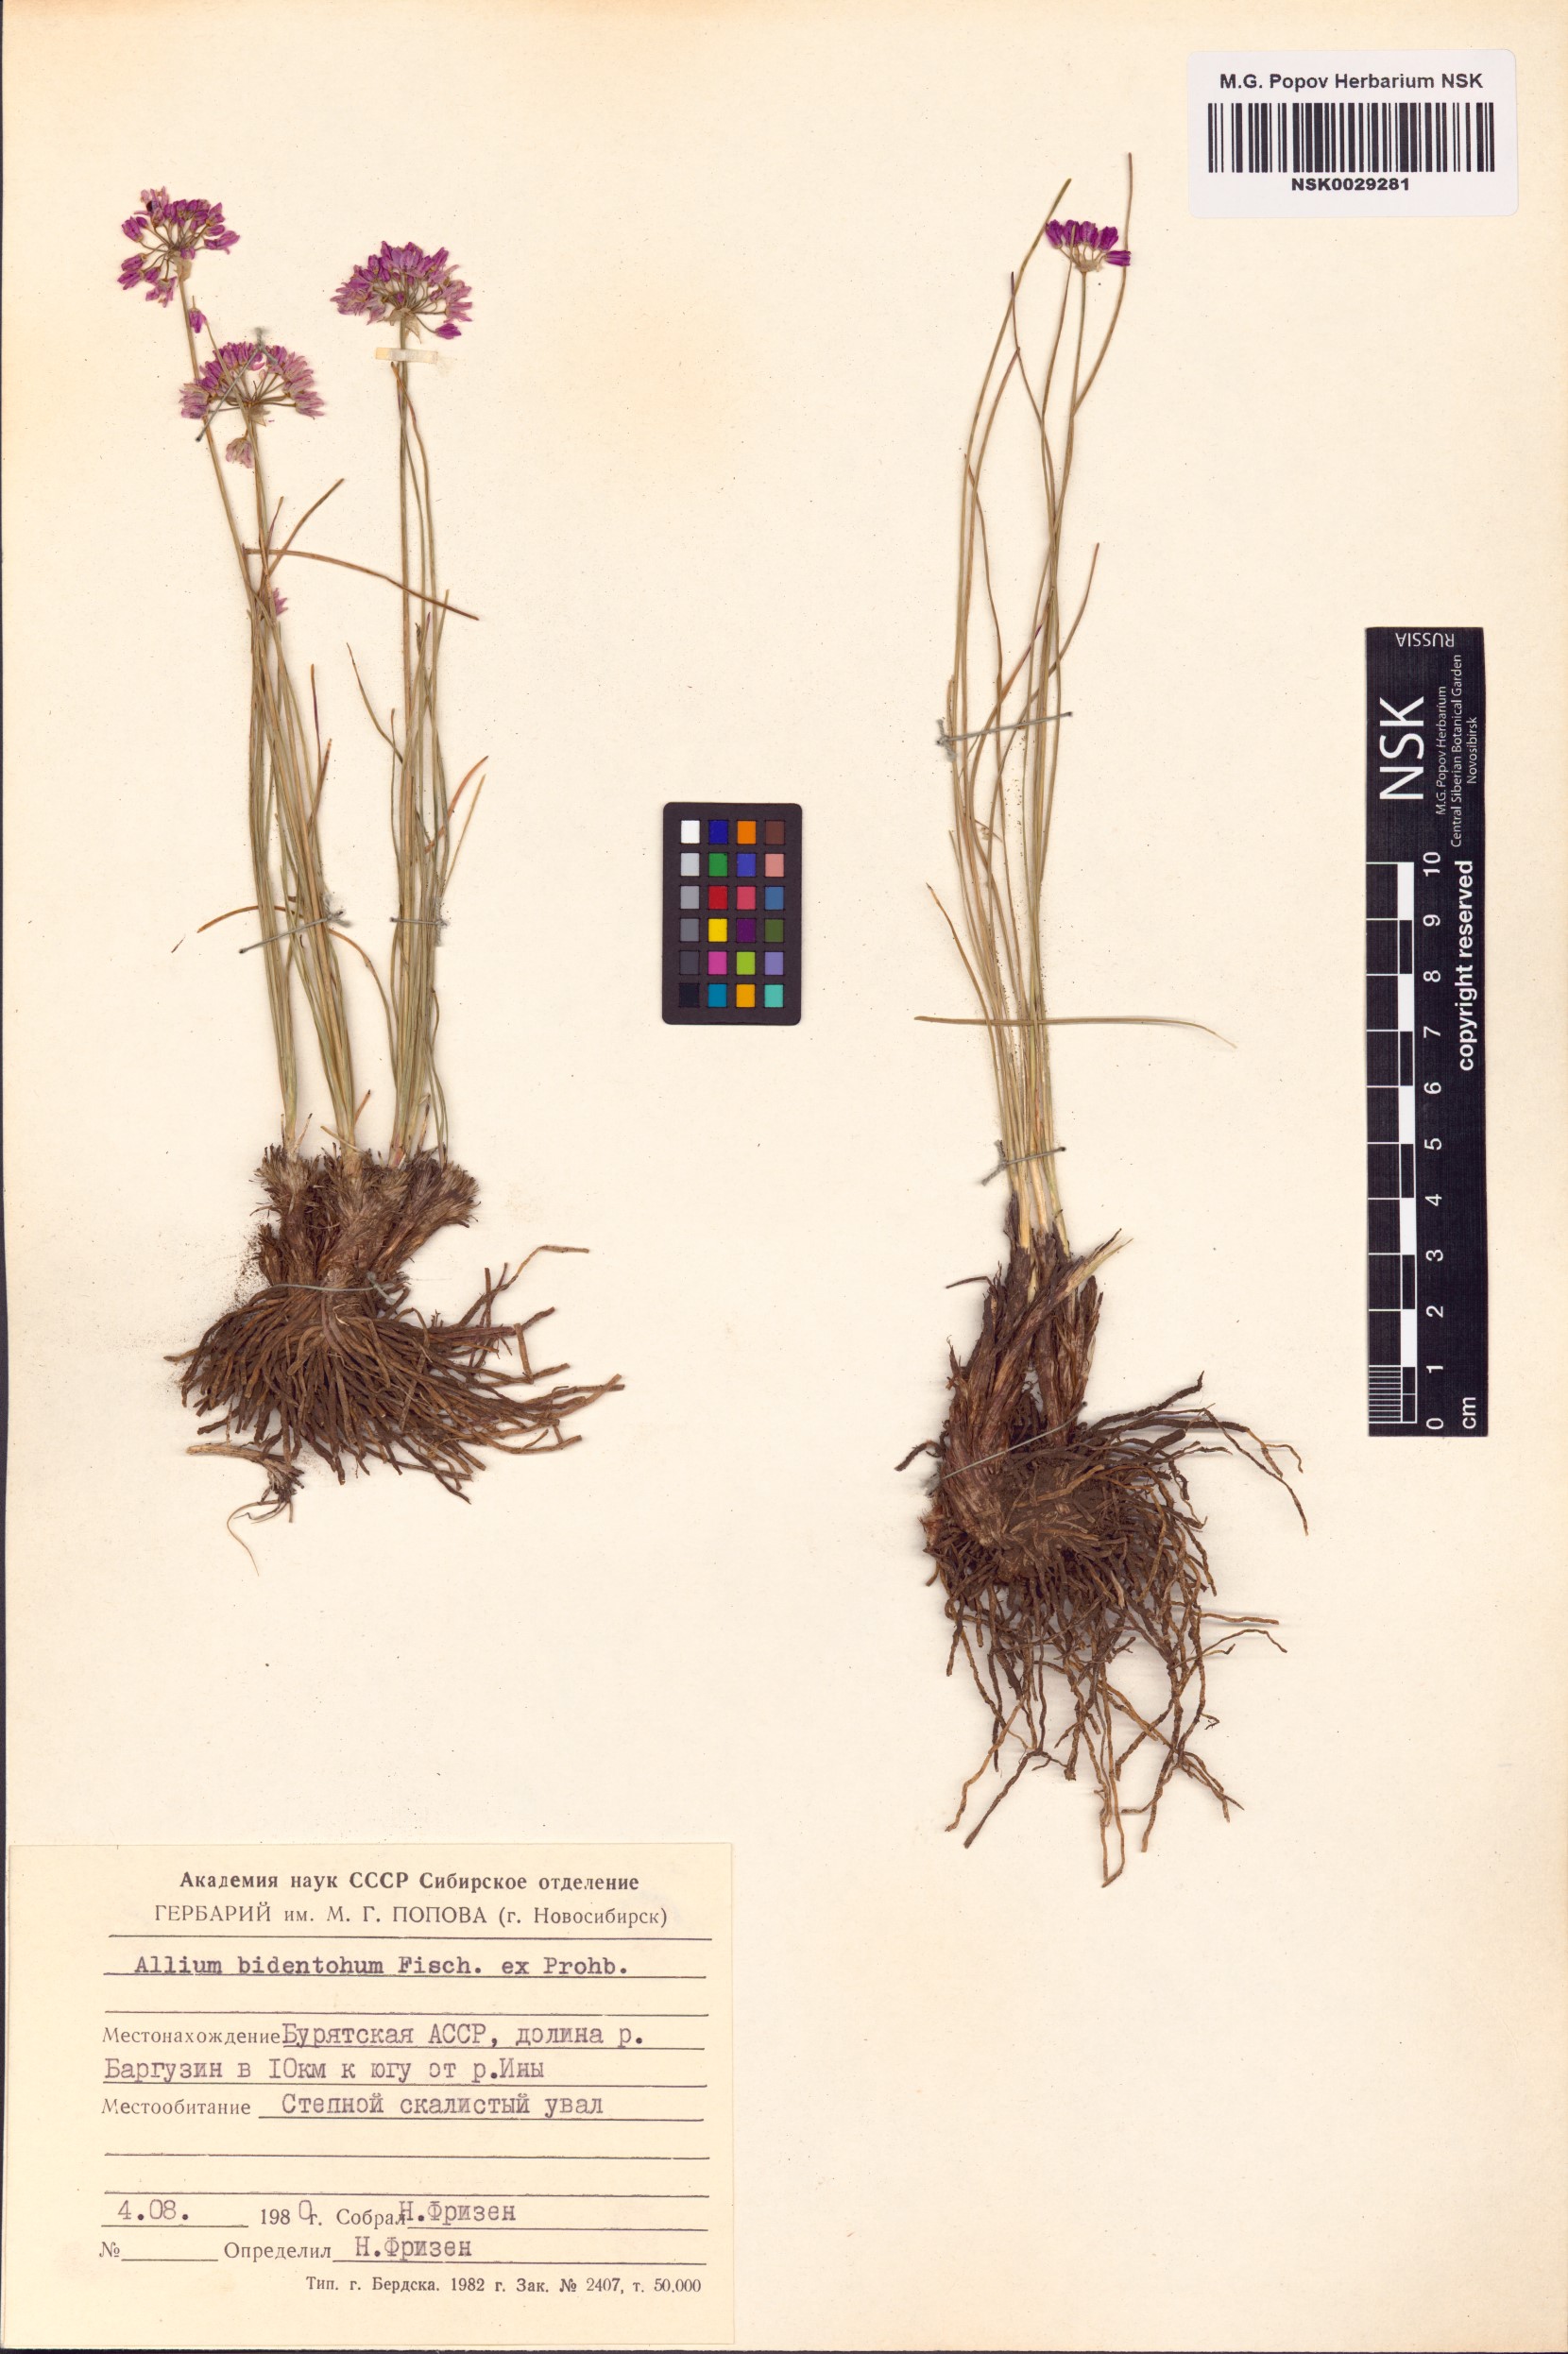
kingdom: Plantae
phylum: Tracheophyta
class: Liliopsida
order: Asparagales
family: Amaryllidaceae
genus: Allium
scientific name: Allium bidentatum
